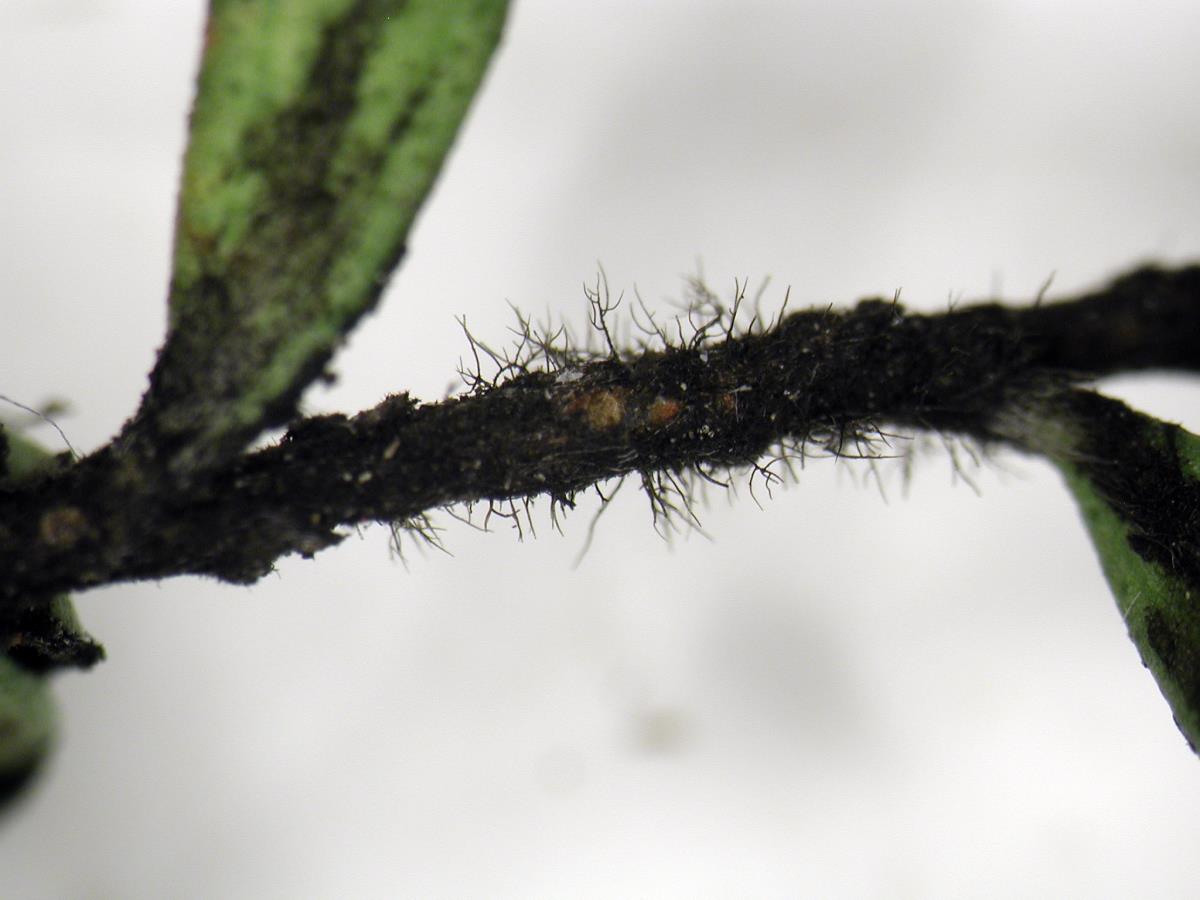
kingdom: Fungi
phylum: Ascomycota
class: Dothideomycetes
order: Capnodiales
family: Metacapnodiaceae
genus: Metacapnodium
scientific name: Metacapnodium
